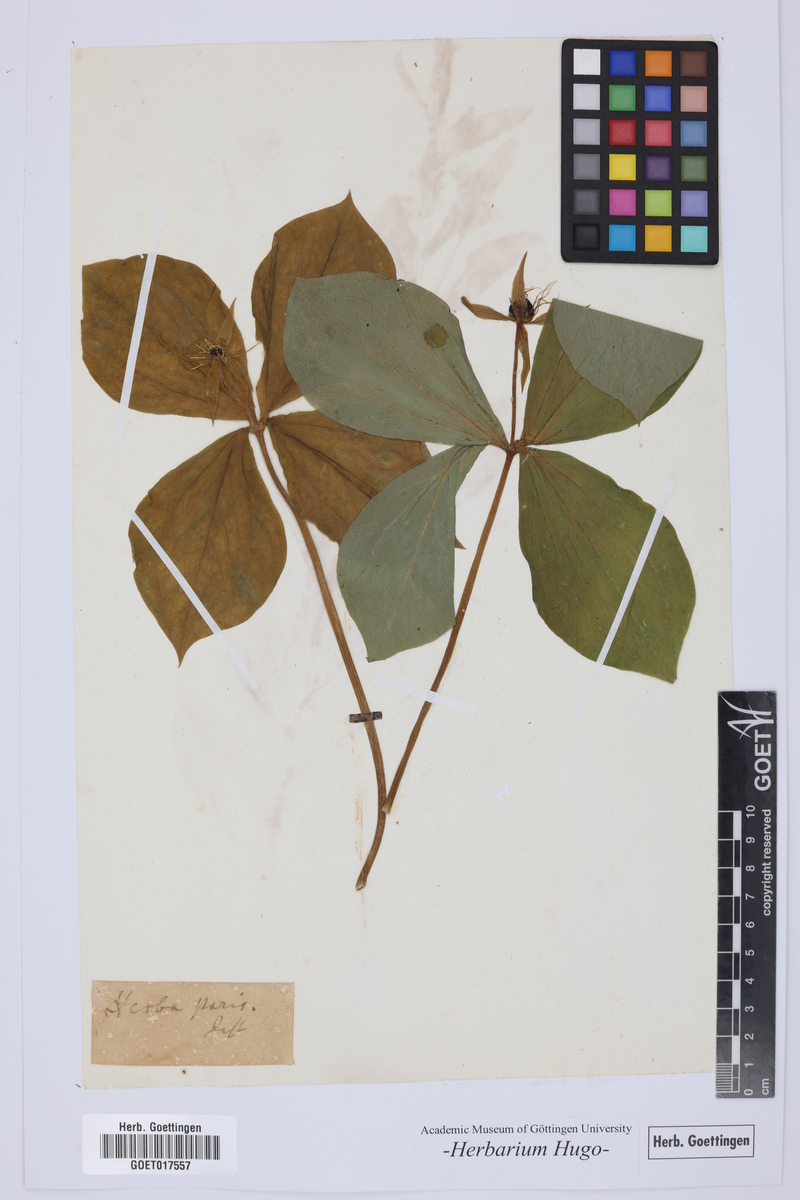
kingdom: Plantae
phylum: Tracheophyta
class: Liliopsida
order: Liliales
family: Melanthiaceae
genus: Paris
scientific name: Paris quadrifolia
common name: Herb-paris
